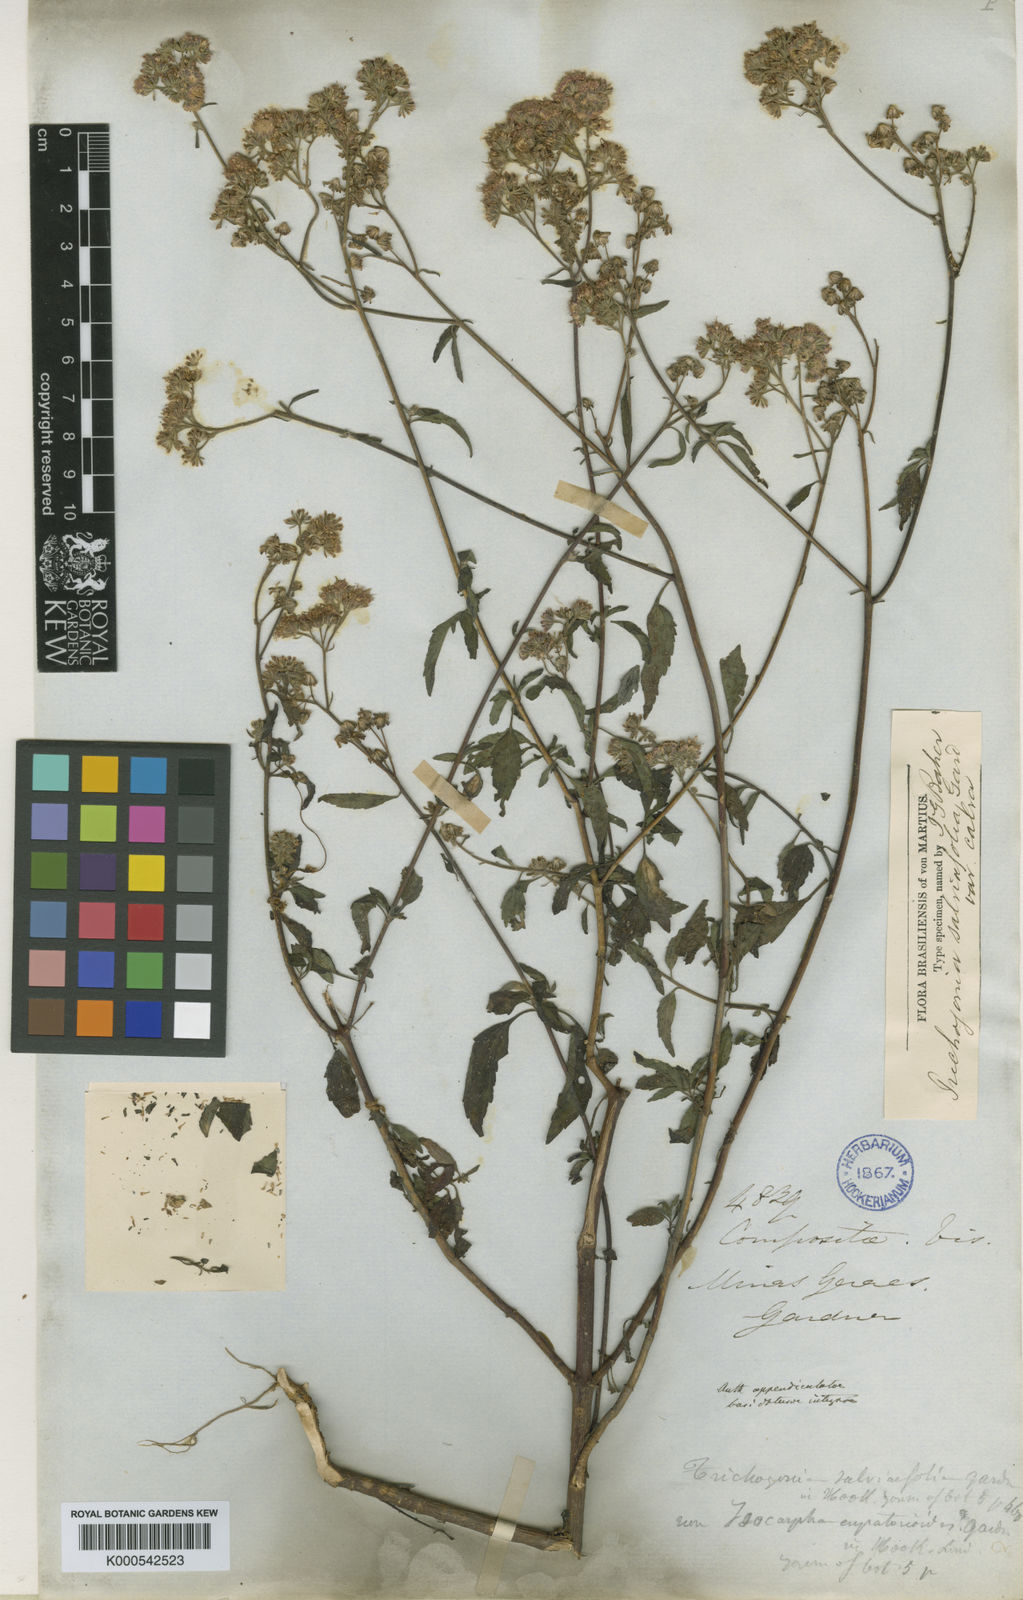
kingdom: Plantae
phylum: Tracheophyta
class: Magnoliopsida
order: Asterales
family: Asteraceae
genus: Trichogonia
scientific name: Trichogonia salviifolia
